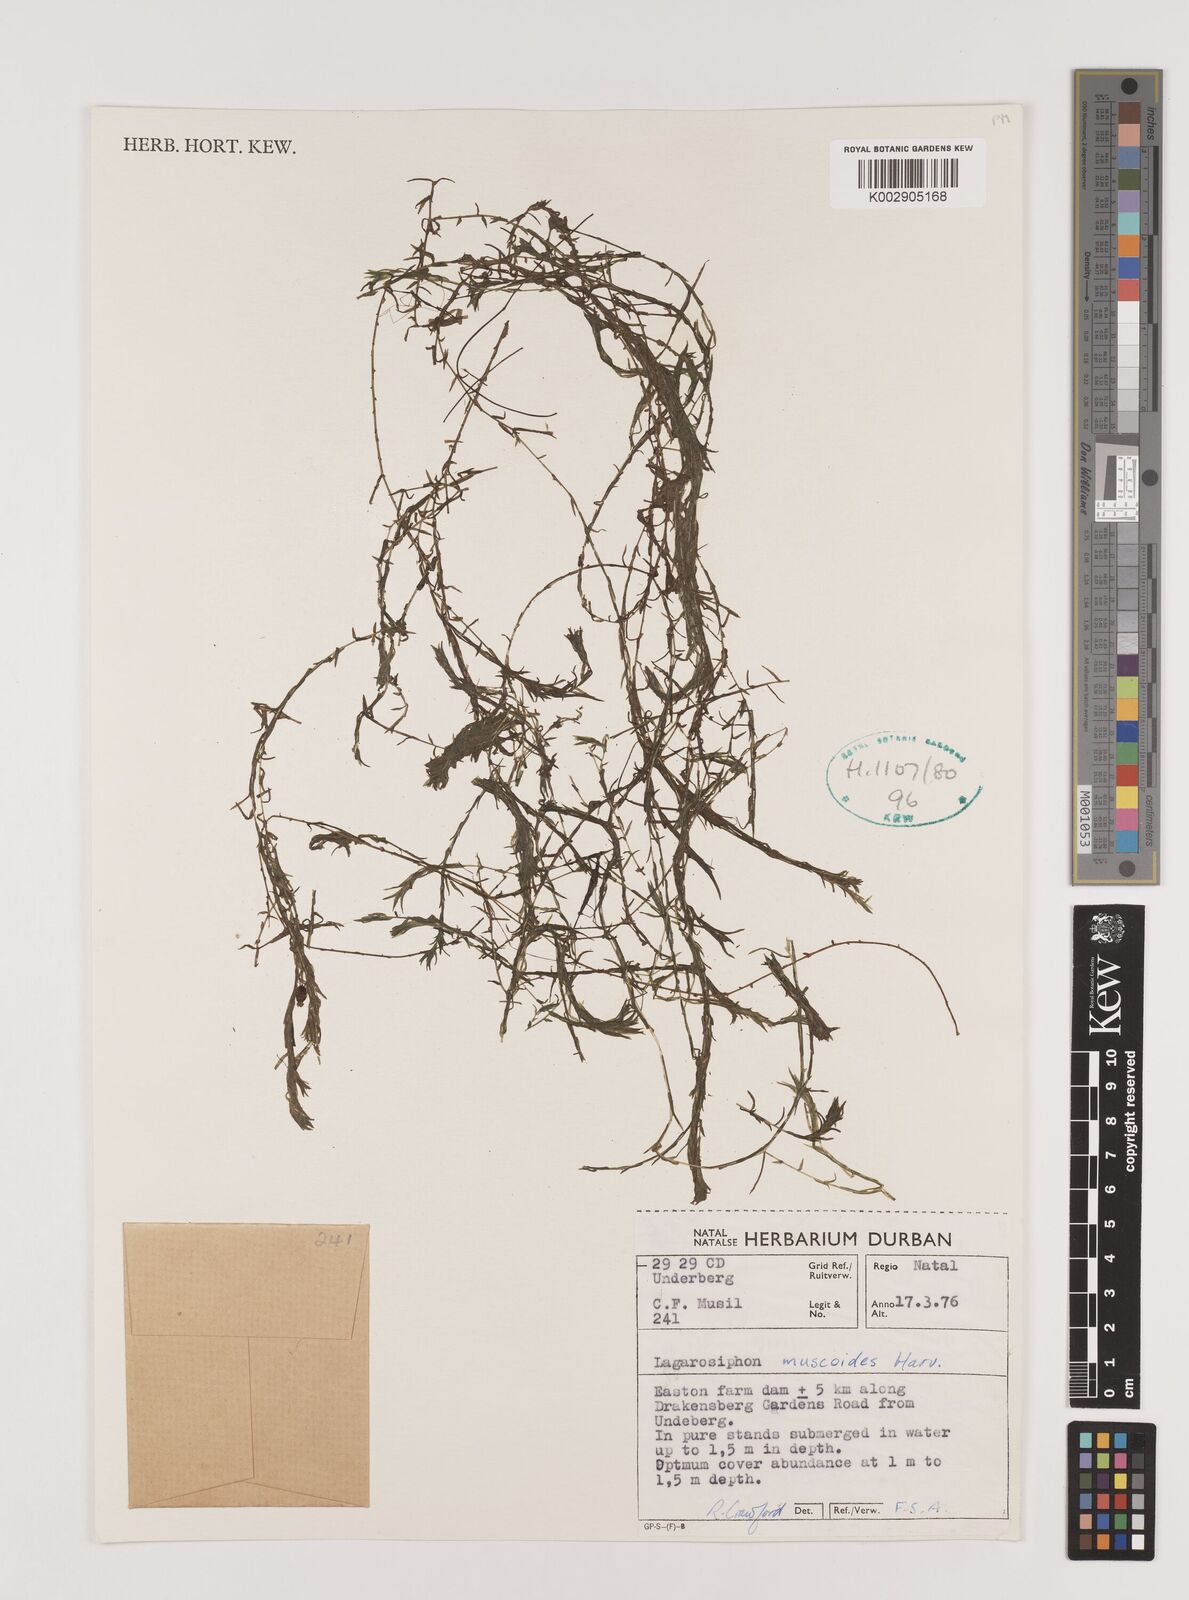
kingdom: Plantae
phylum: Tracheophyta
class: Liliopsida
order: Alismatales
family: Hydrocharitaceae
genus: Lagarosiphon
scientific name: Lagarosiphon muscoides
